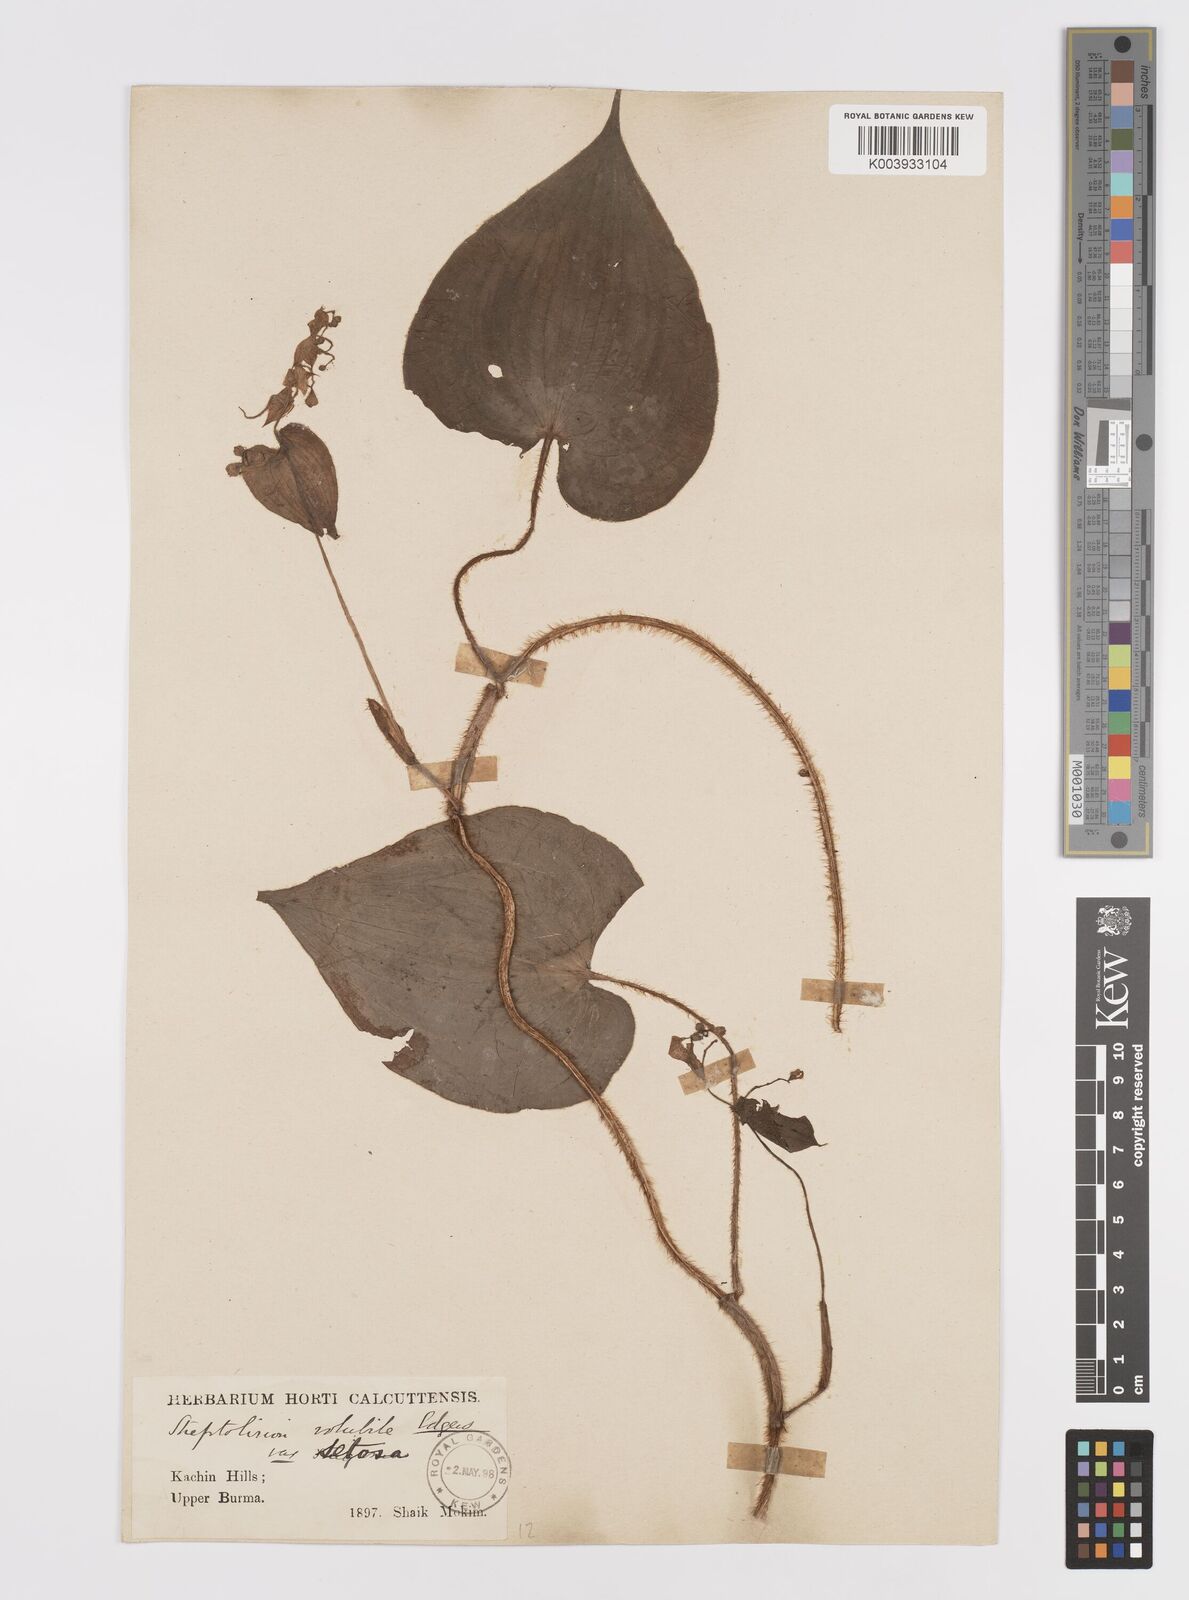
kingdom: Plantae
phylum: Tracheophyta
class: Liliopsida
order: Commelinales
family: Commelinaceae
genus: Streptolirion
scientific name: Streptolirion volubile
